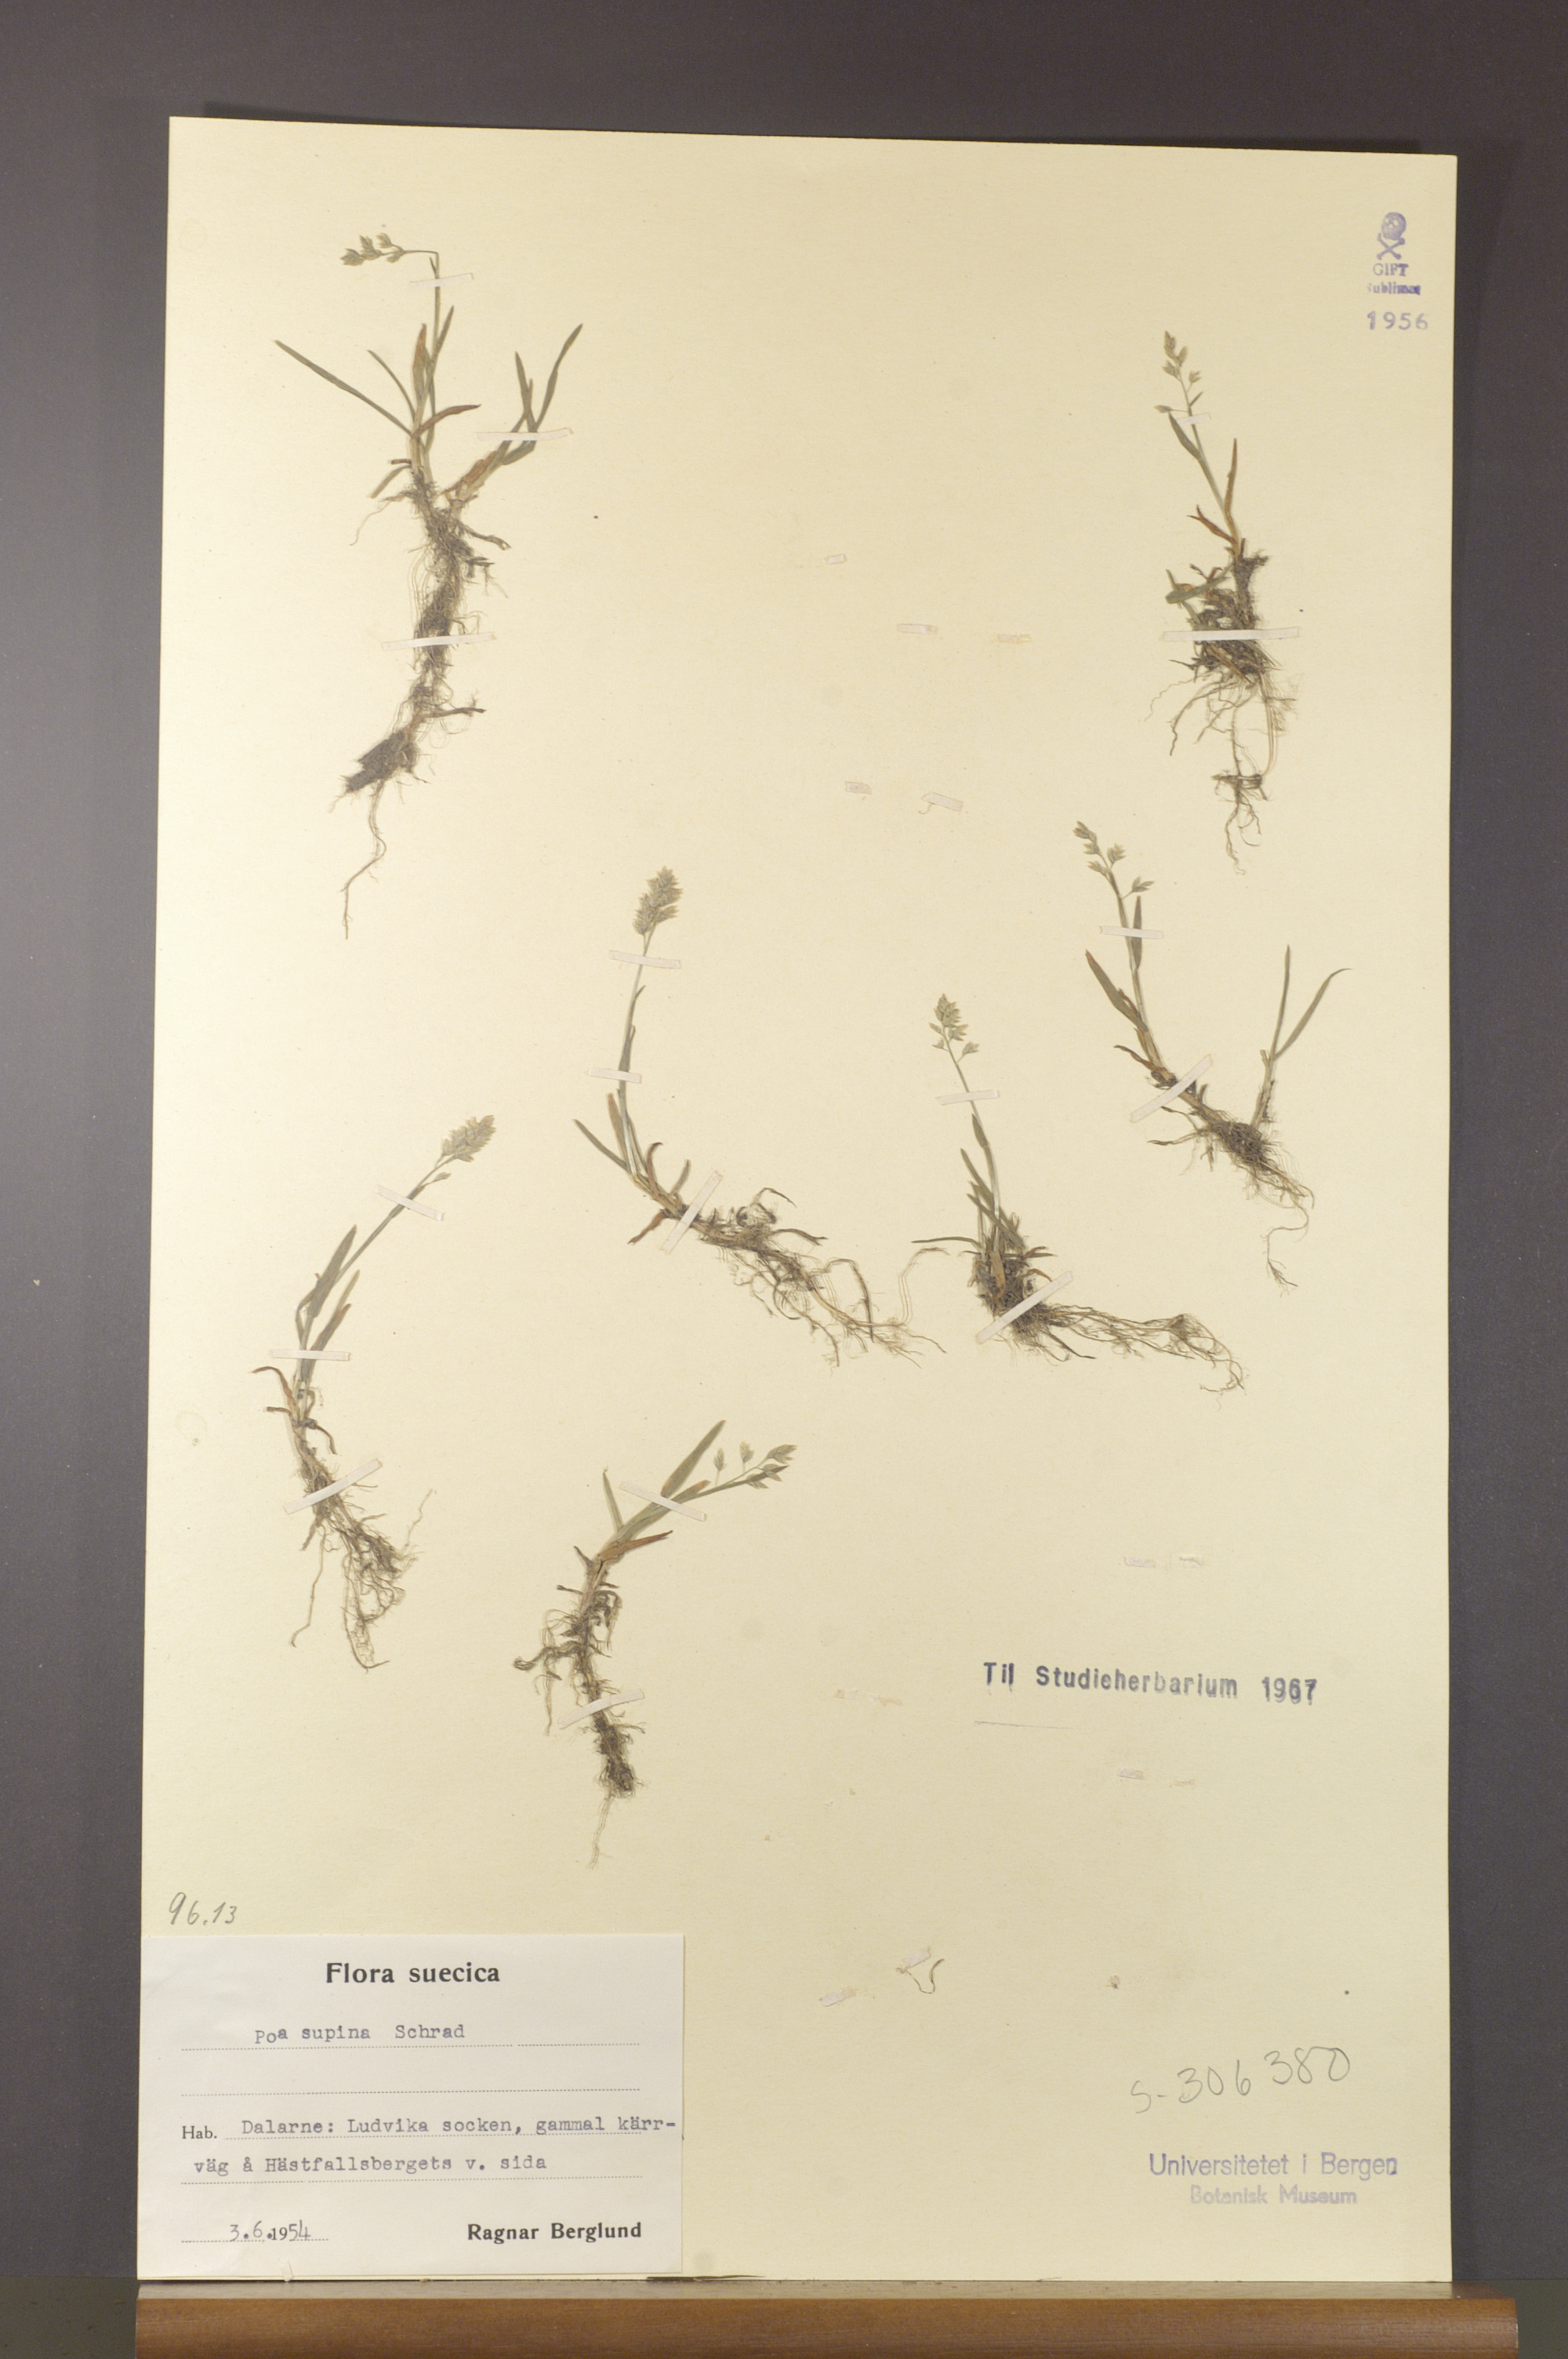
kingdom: Plantae
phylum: Tracheophyta
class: Liliopsida
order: Poales
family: Poaceae
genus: Poa
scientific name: Poa supina
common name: Supina bluegrass
